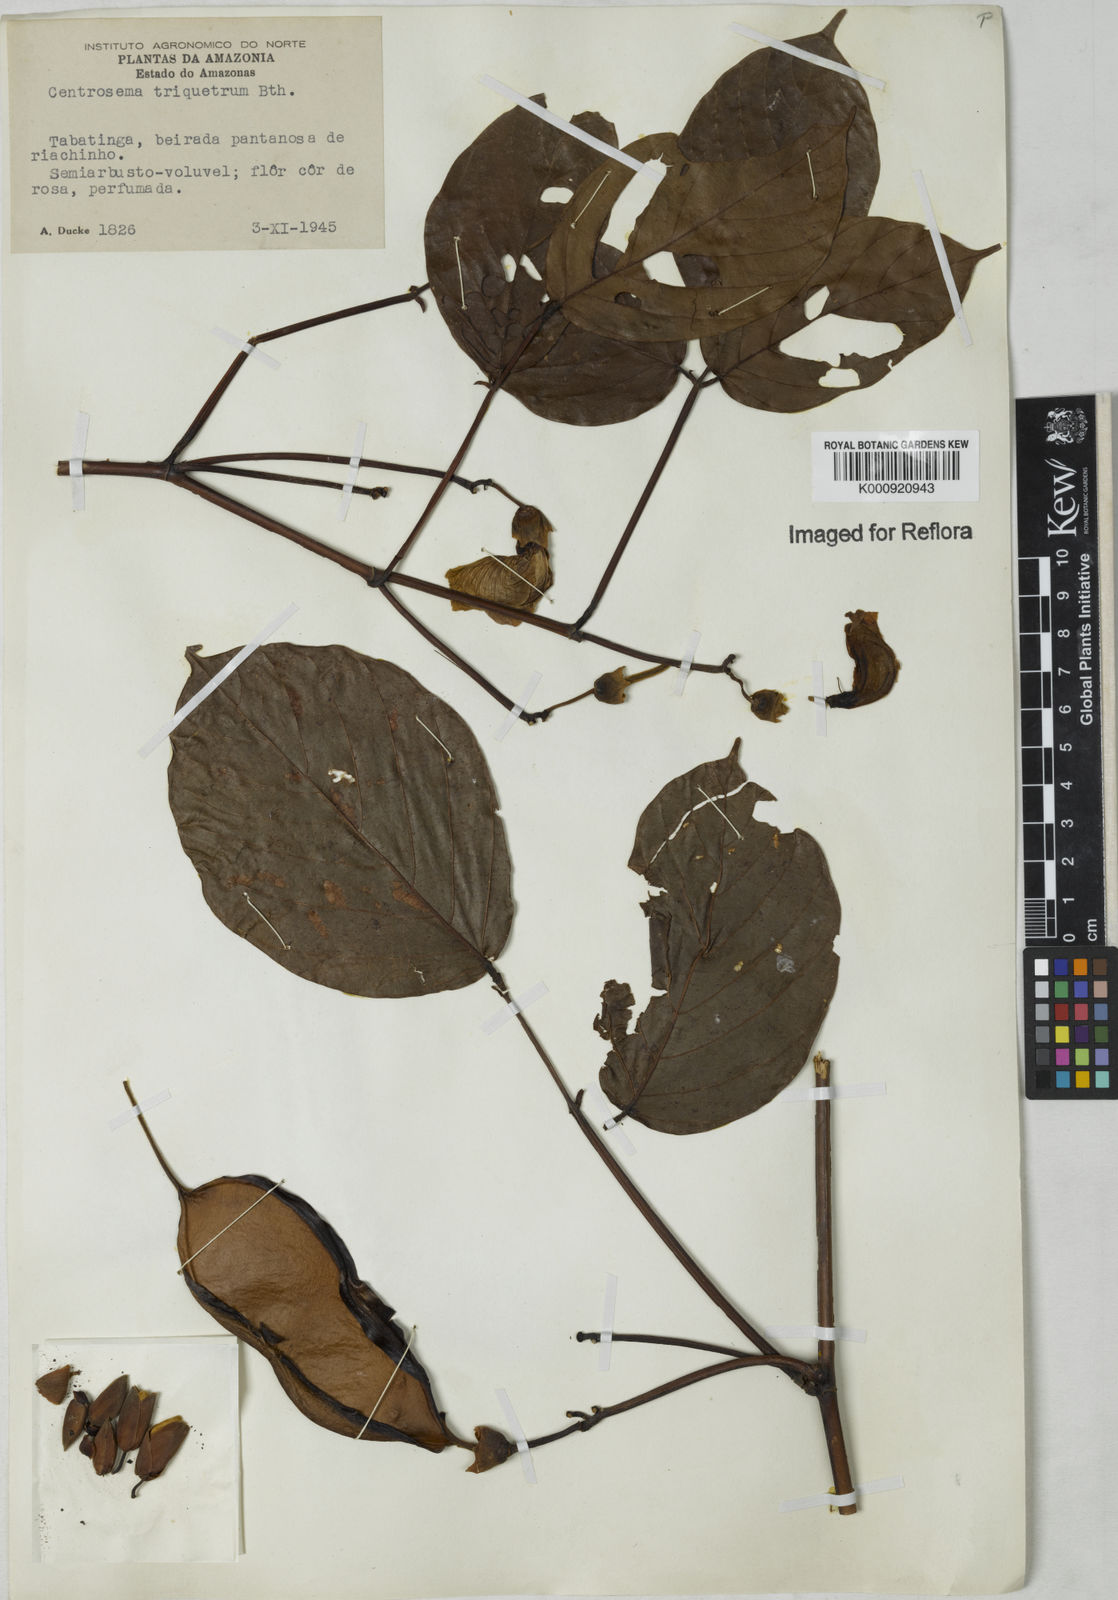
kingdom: Plantae
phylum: Tracheophyta
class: Magnoliopsida
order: Fabales
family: Fabaceae
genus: Centrosema
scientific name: Centrosema triquetrum
